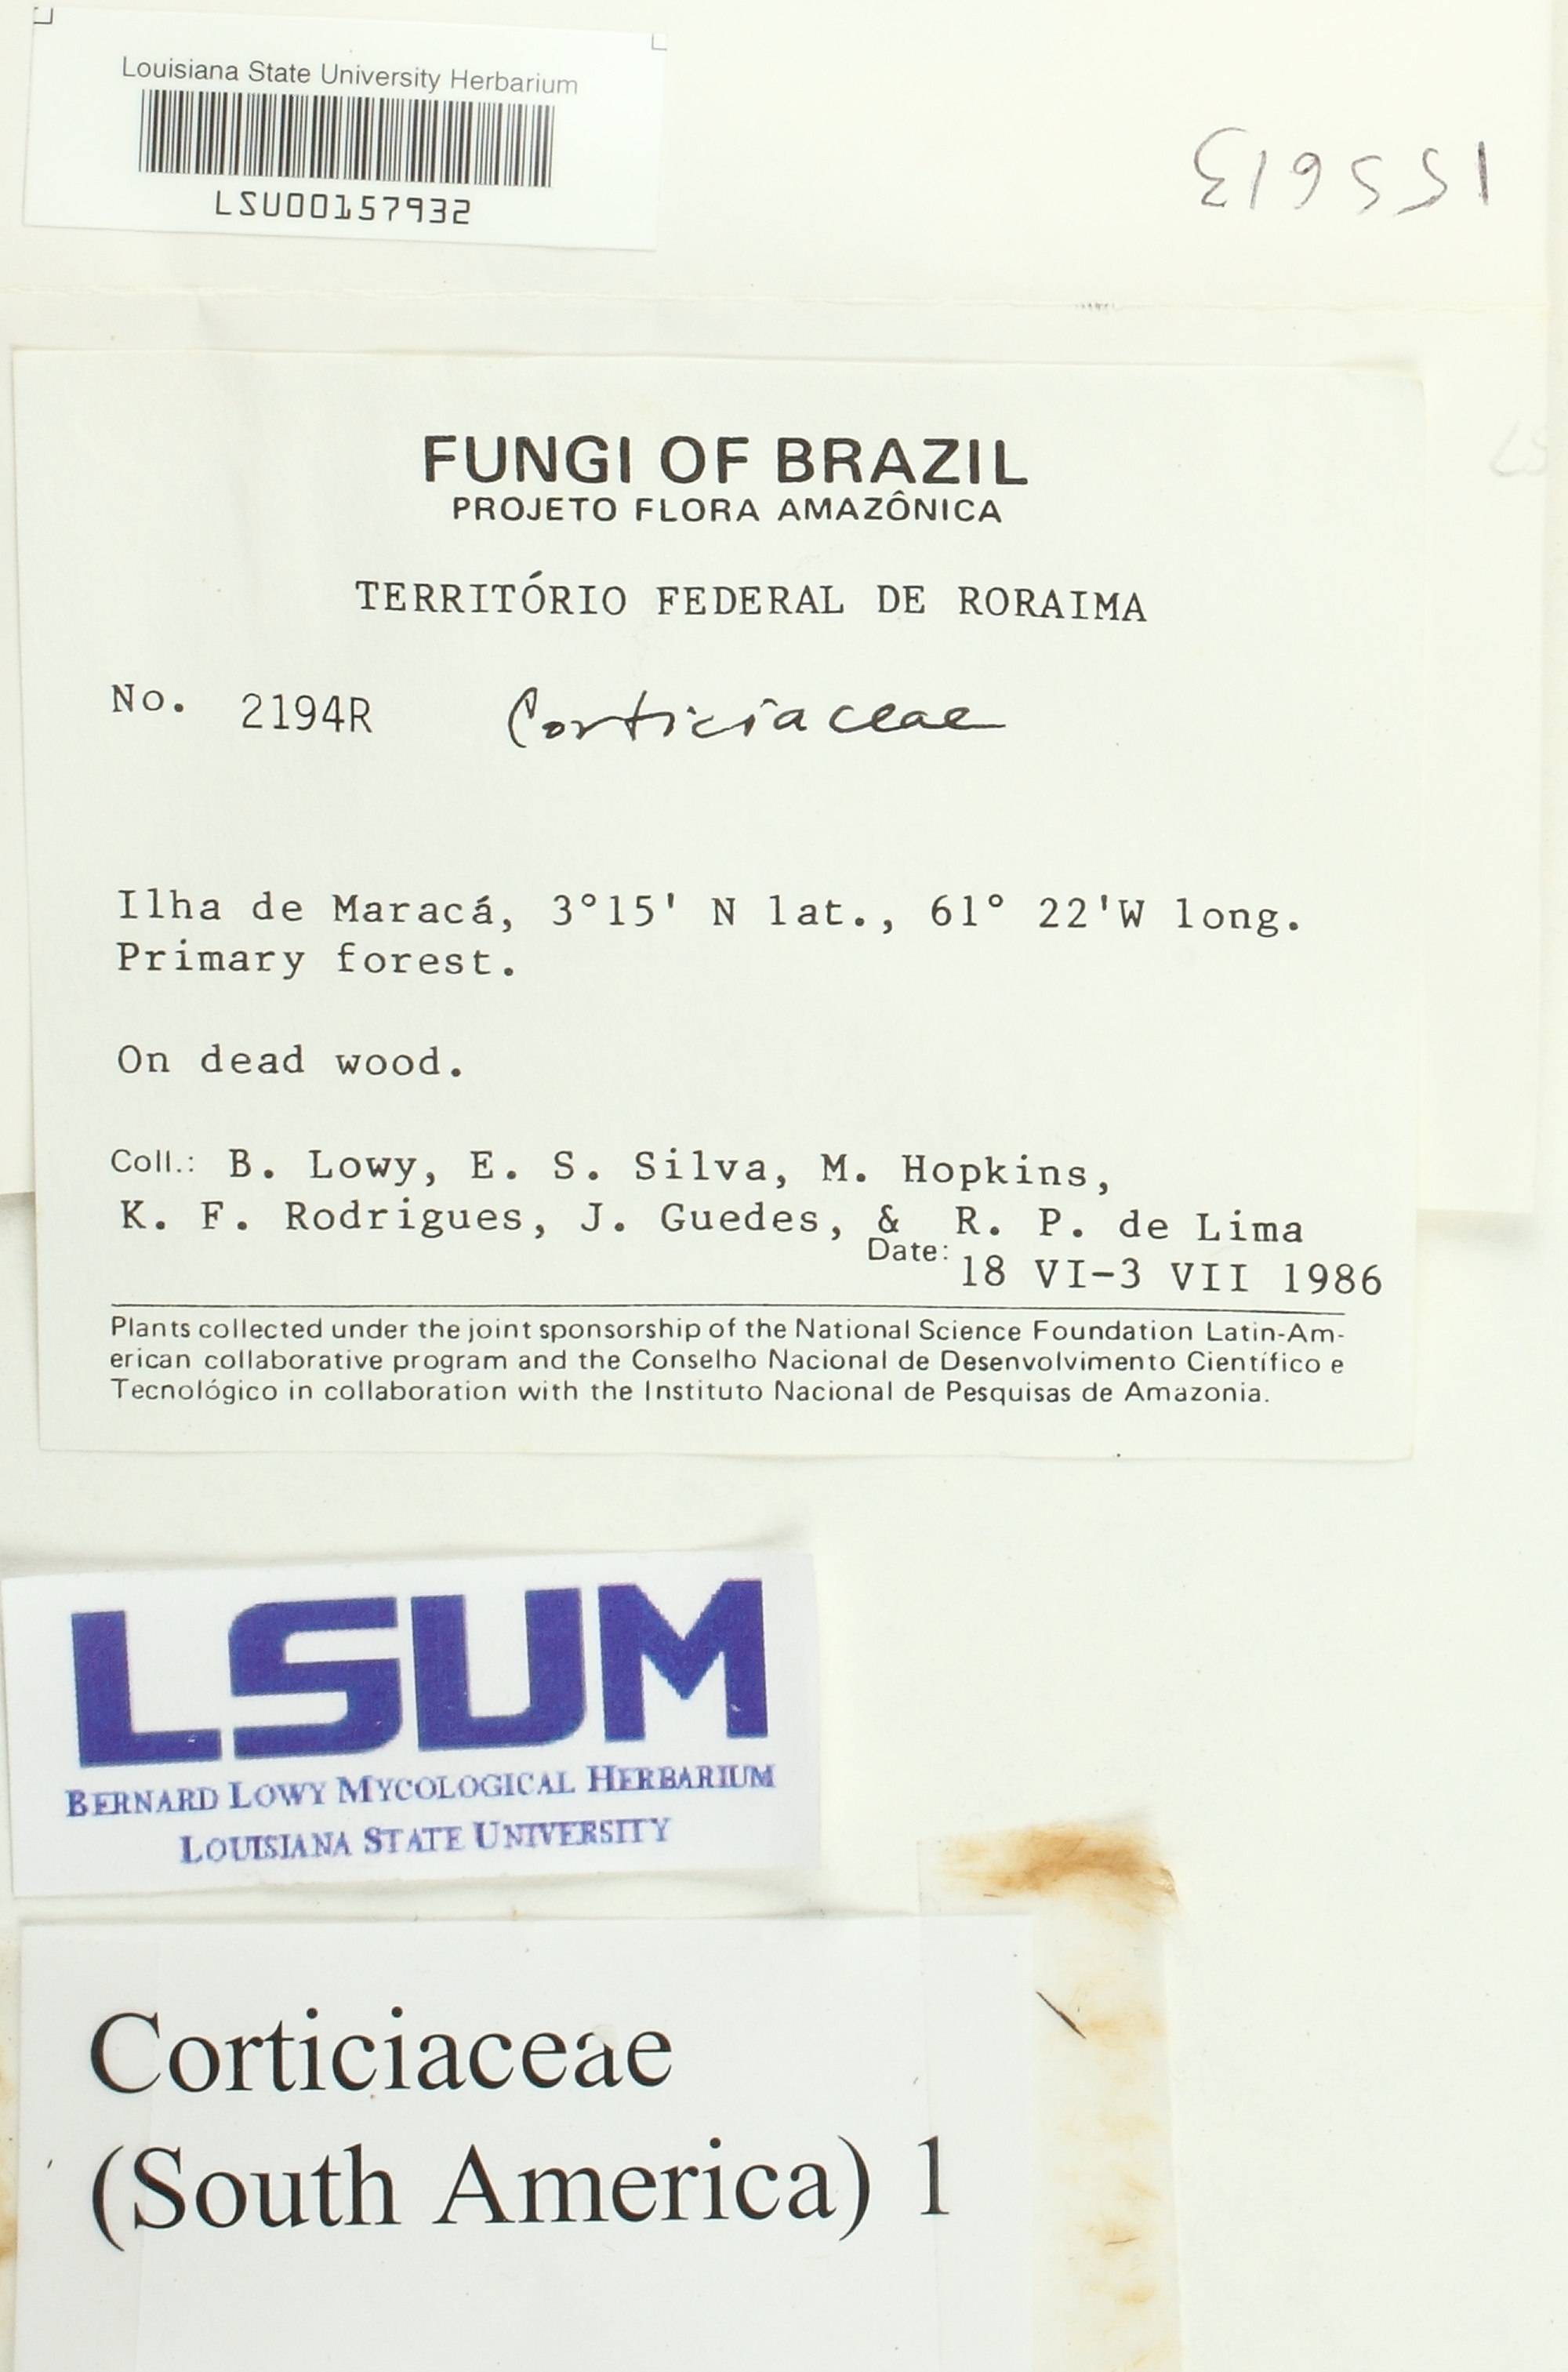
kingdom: Fungi
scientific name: Fungi
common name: Fungi
